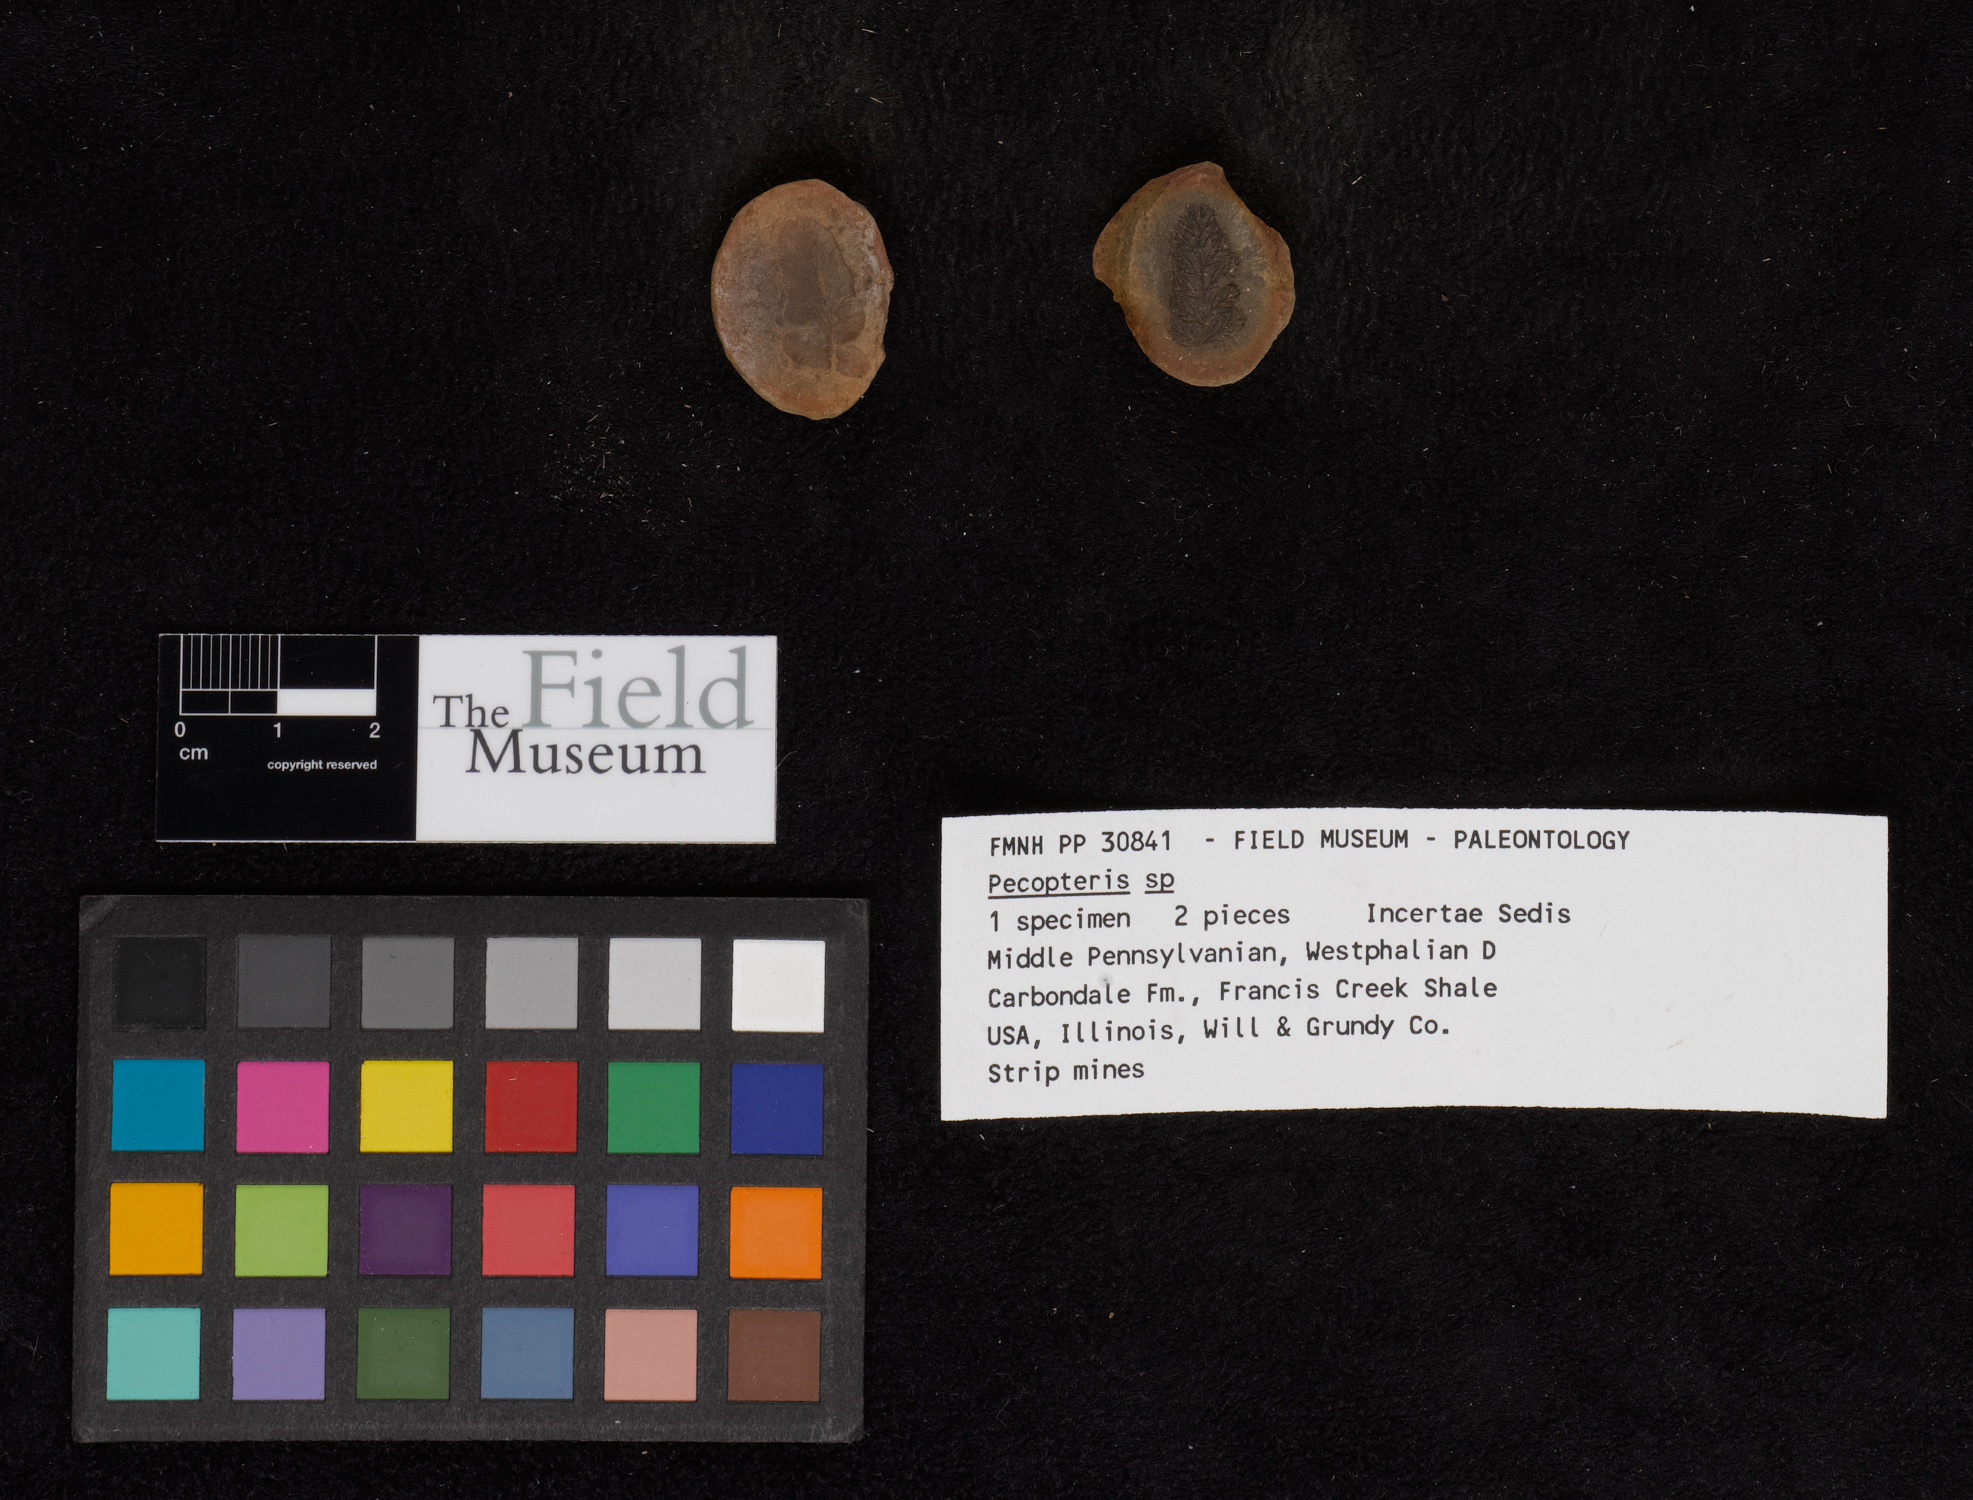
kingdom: Plantae
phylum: Tracheophyta
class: Polypodiopsida
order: Marattiales
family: Asterothecaceae
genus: Pecopteris
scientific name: Pecopteris
